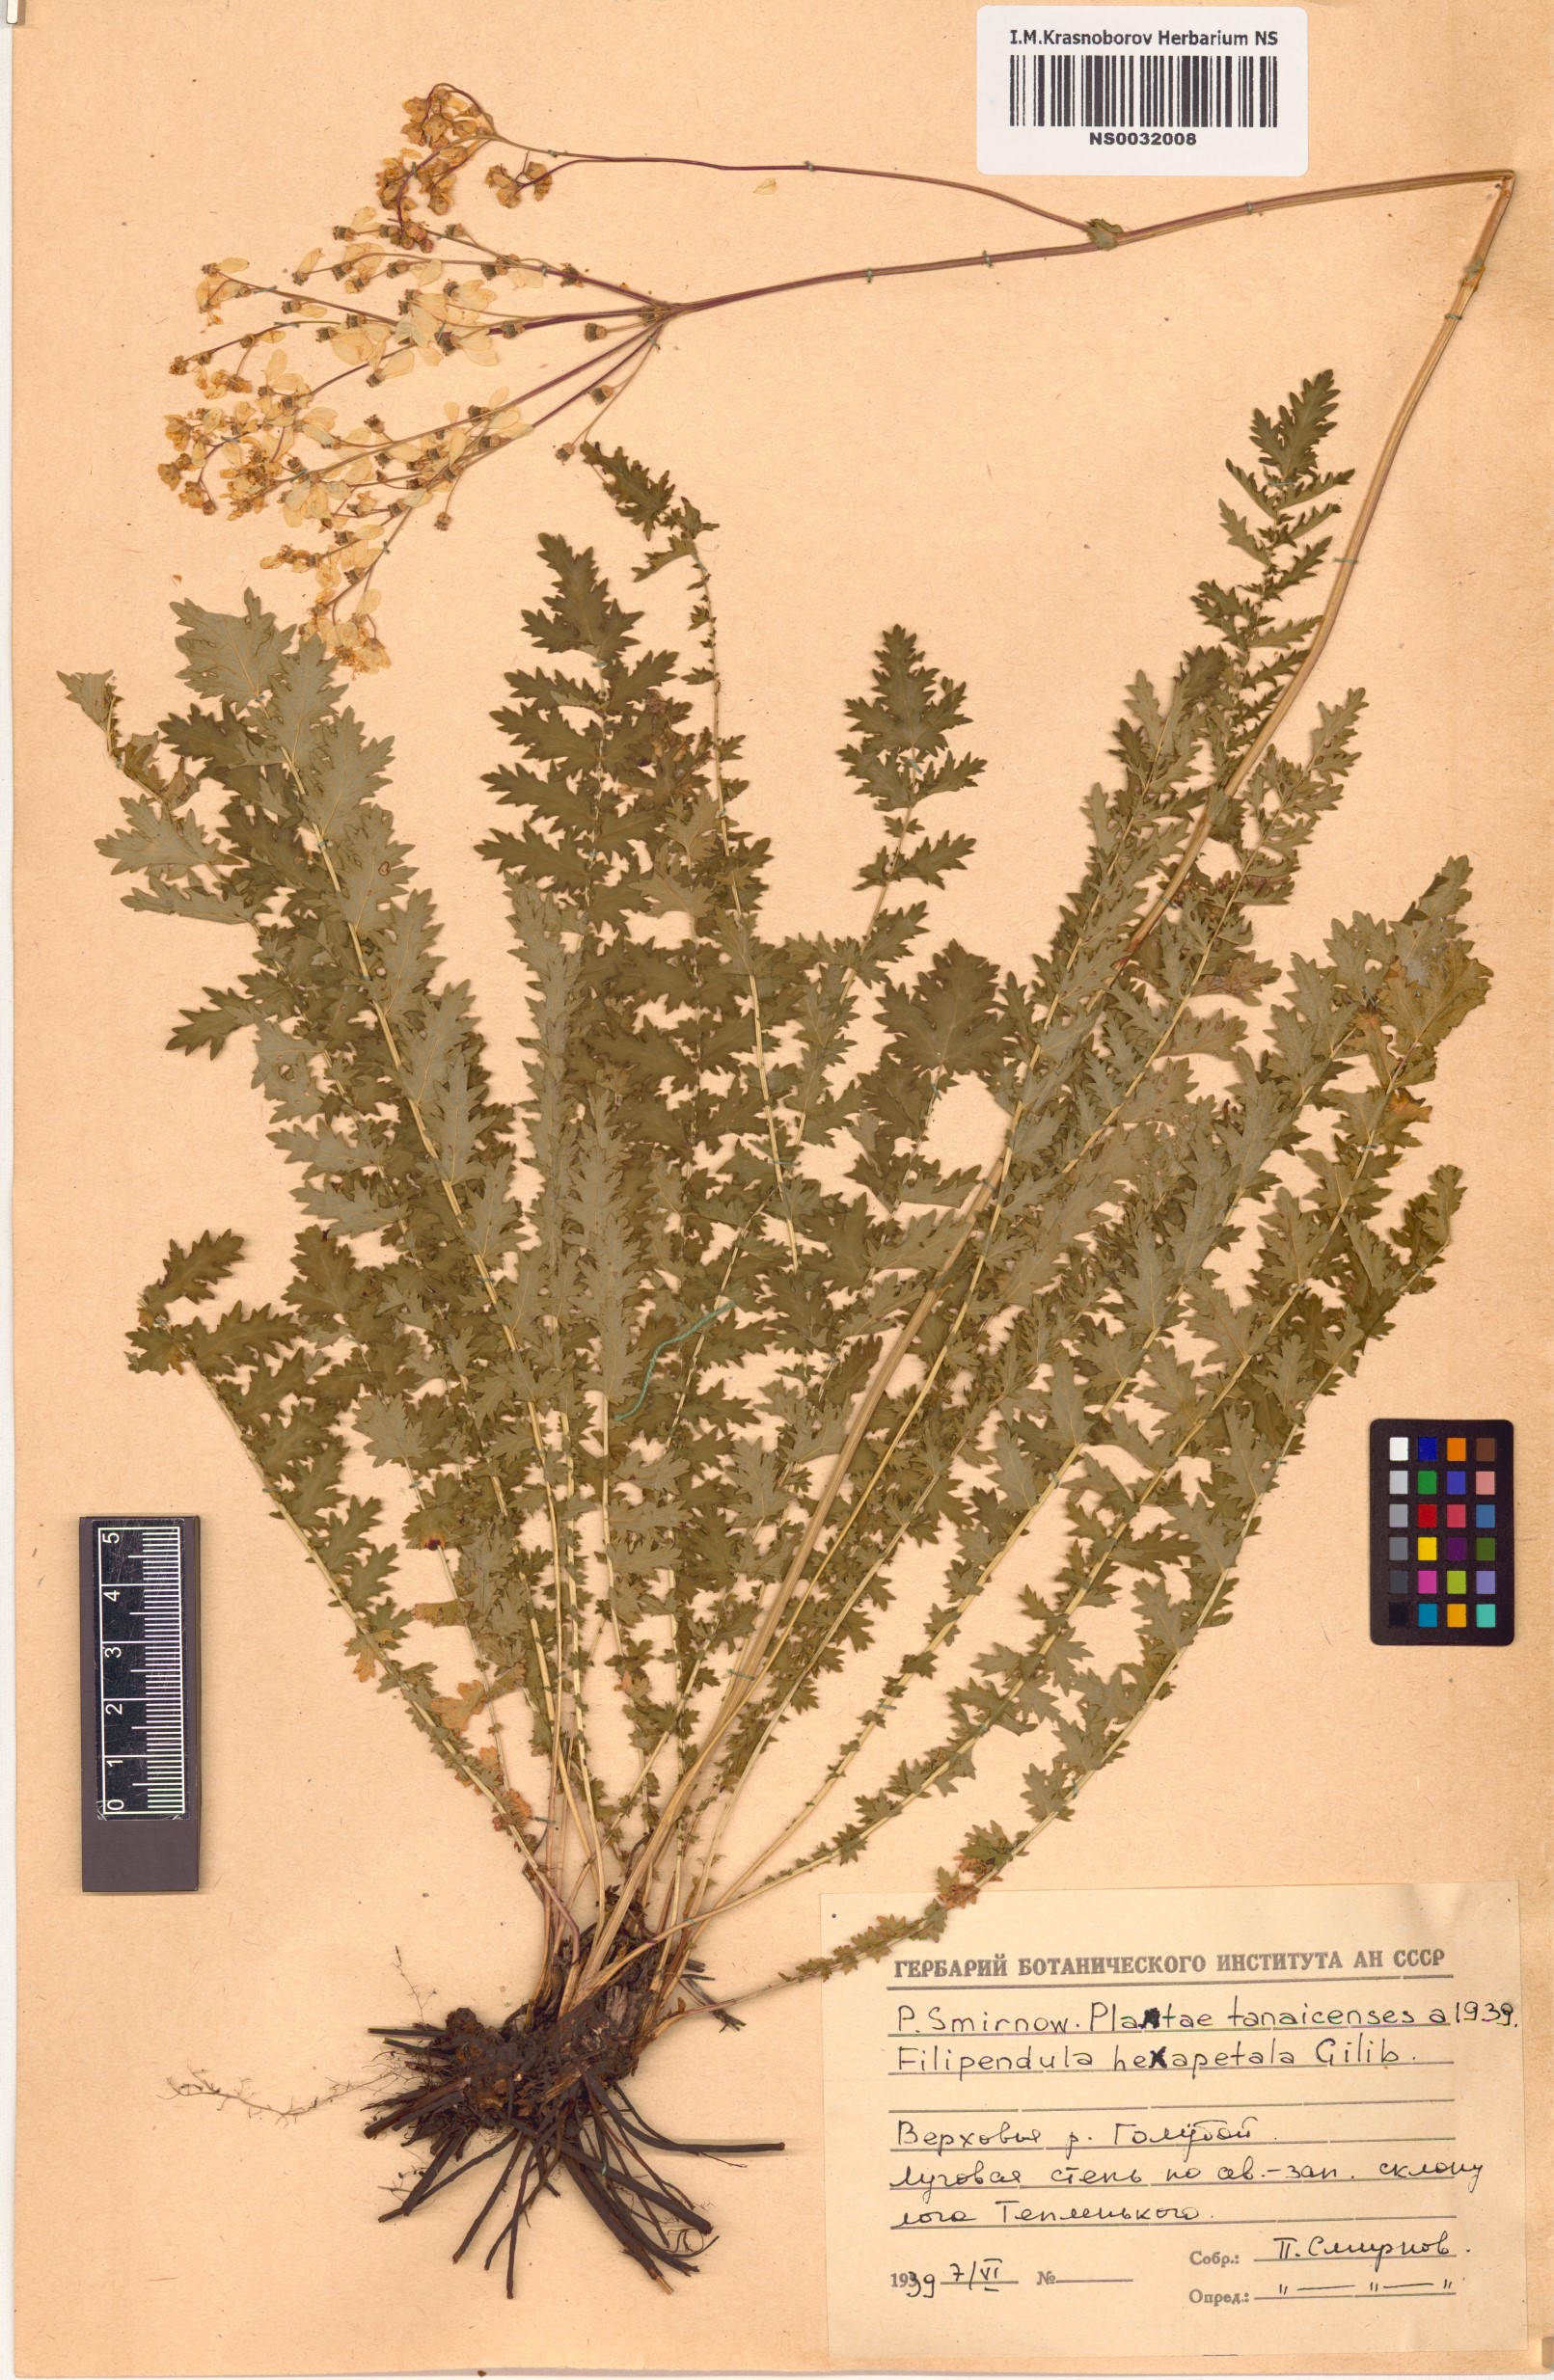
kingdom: Plantae
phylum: Tracheophyta
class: Magnoliopsida
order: Rosales
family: Rosaceae
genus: Filipendula
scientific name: Filipendula vulgaris
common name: Dropwort
